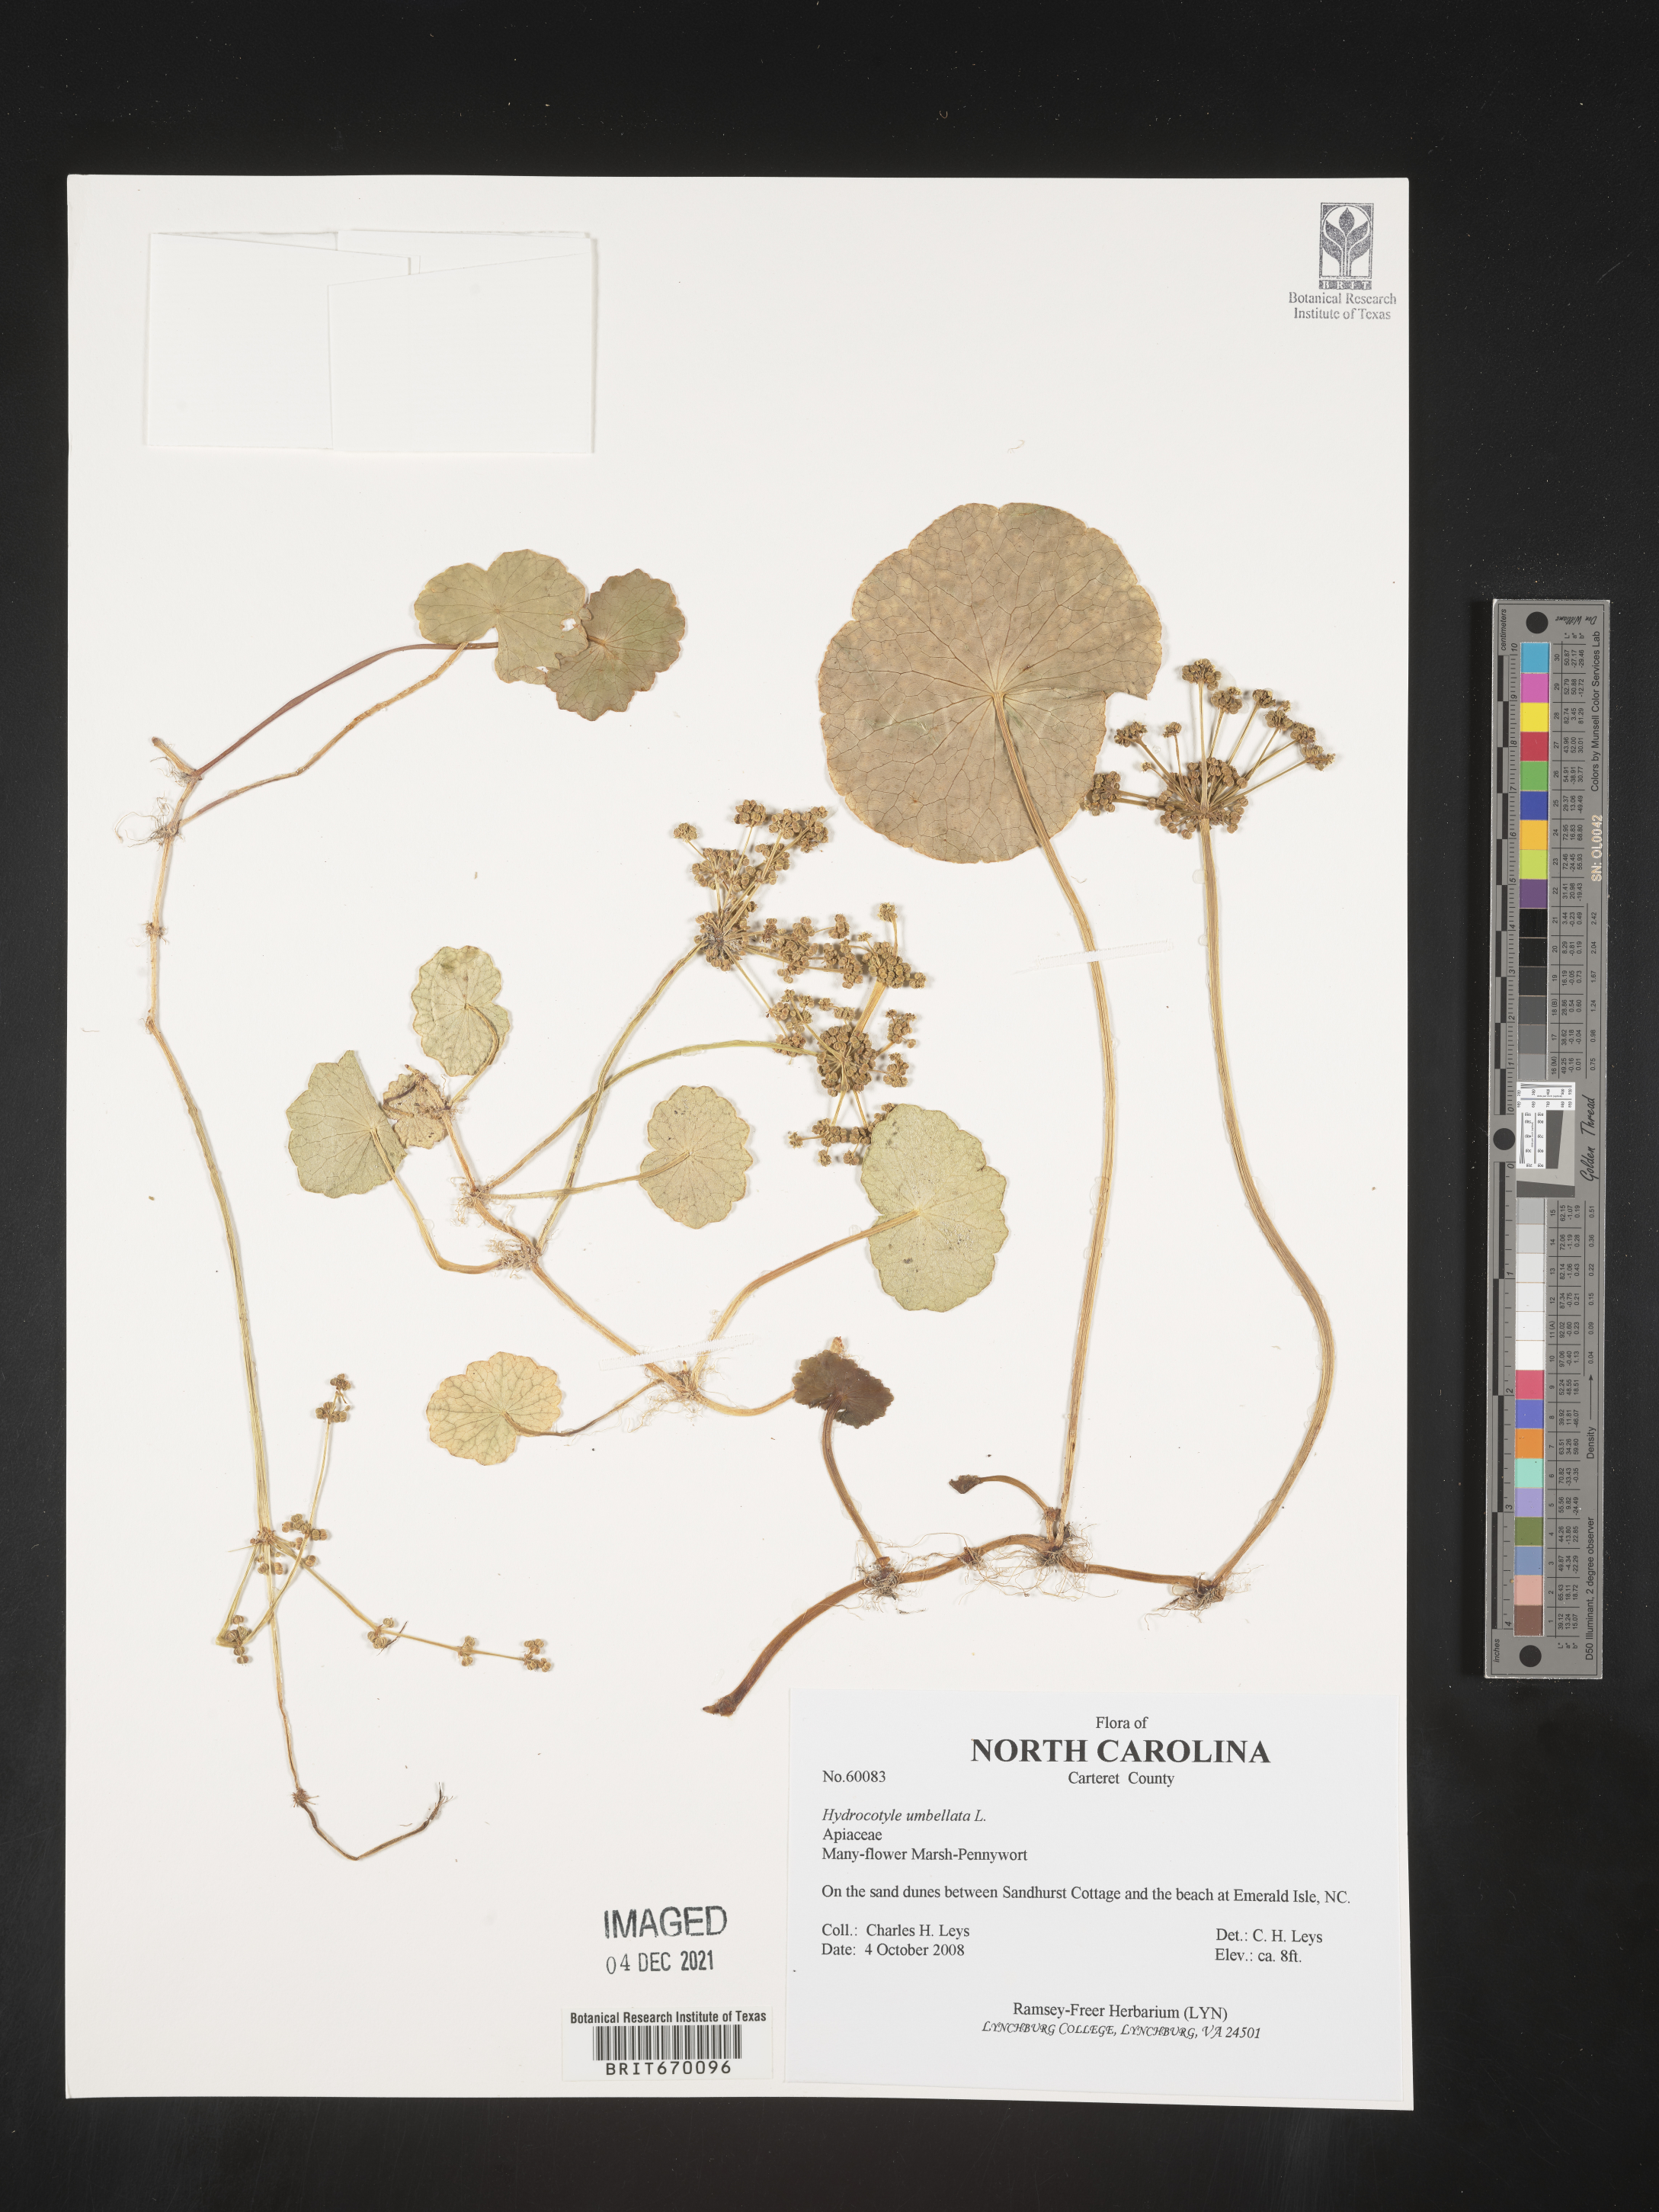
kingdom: Plantae
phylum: Tracheophyta
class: Magnoliopsida
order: Apiales
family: Araliaceae
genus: Hydrocotyle
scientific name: Hydrocotyle umbellata
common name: Water pennywort
